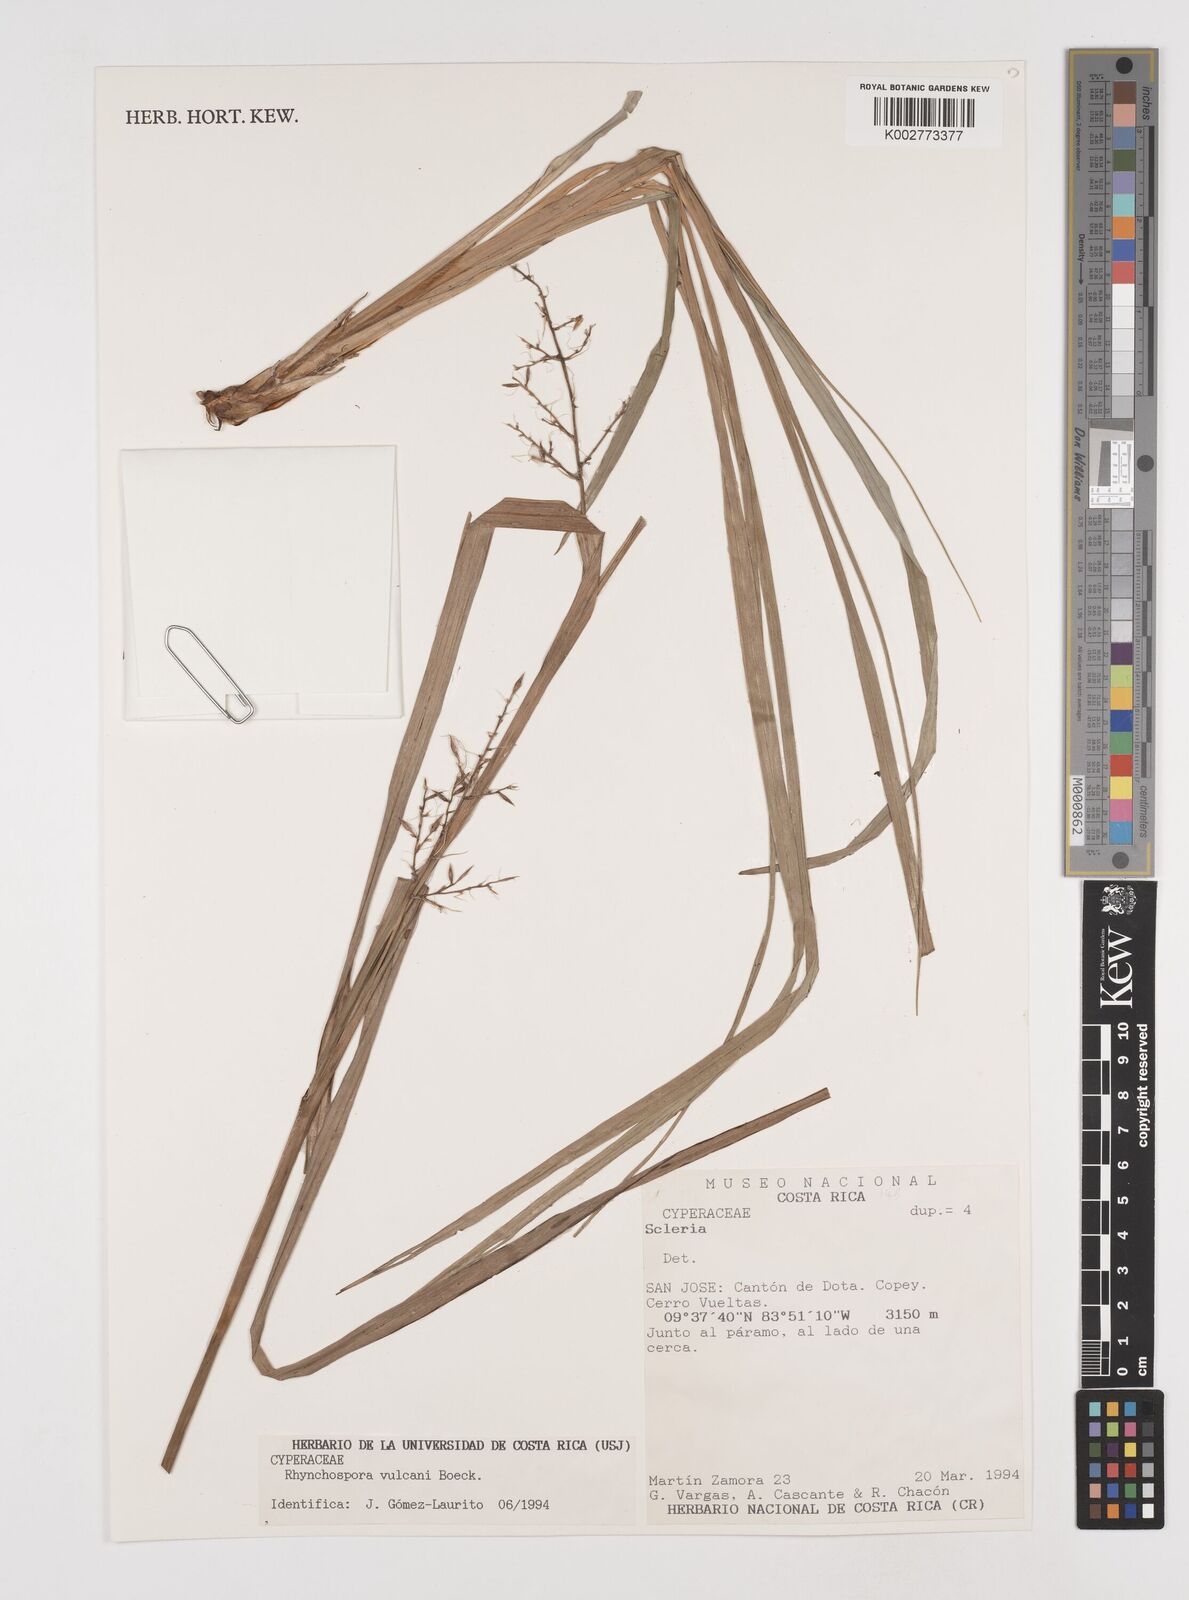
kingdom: Plantae
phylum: Tracheophyta
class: Liliopsida
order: Poales
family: Cyperaceae
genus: Rhynchospora
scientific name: Rhynchospora vulcani
